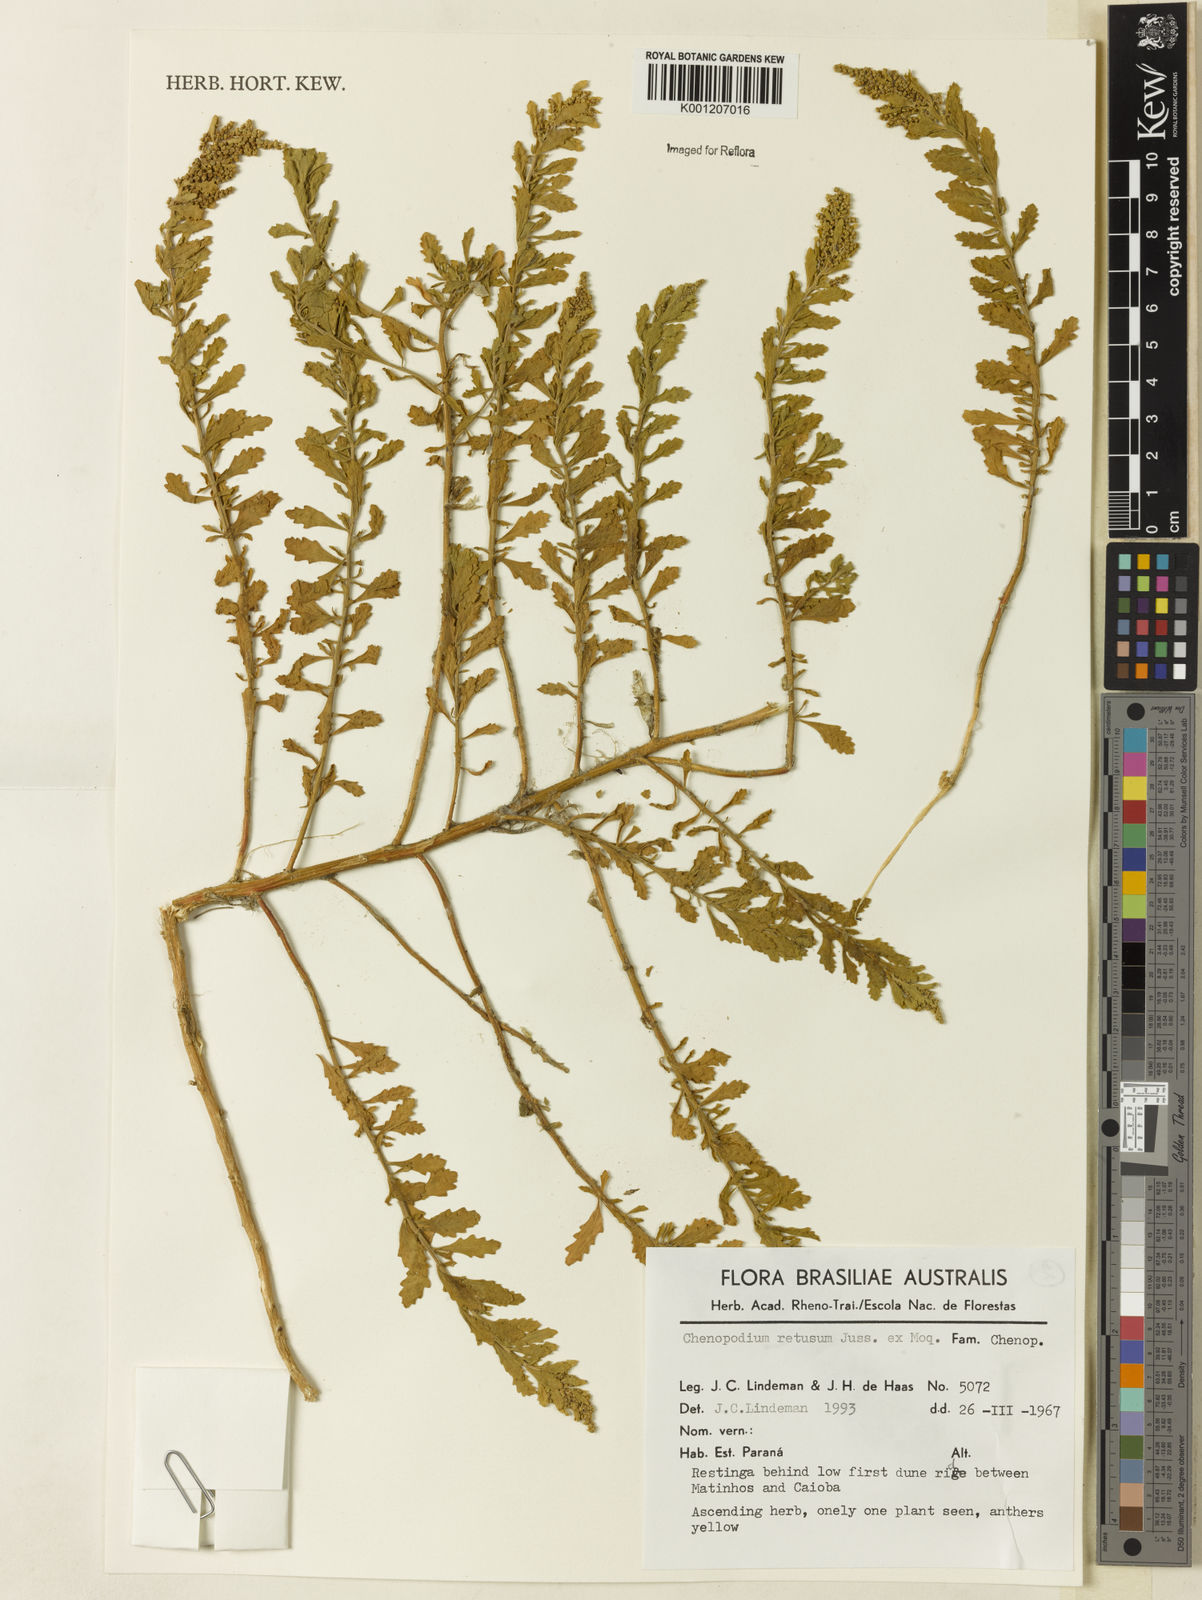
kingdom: Plantae
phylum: Tracheophyta
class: Magnoliopsida
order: Caryophyllales
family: Amaranthaceae
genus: Dysphania
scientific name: Dysphania retusa
